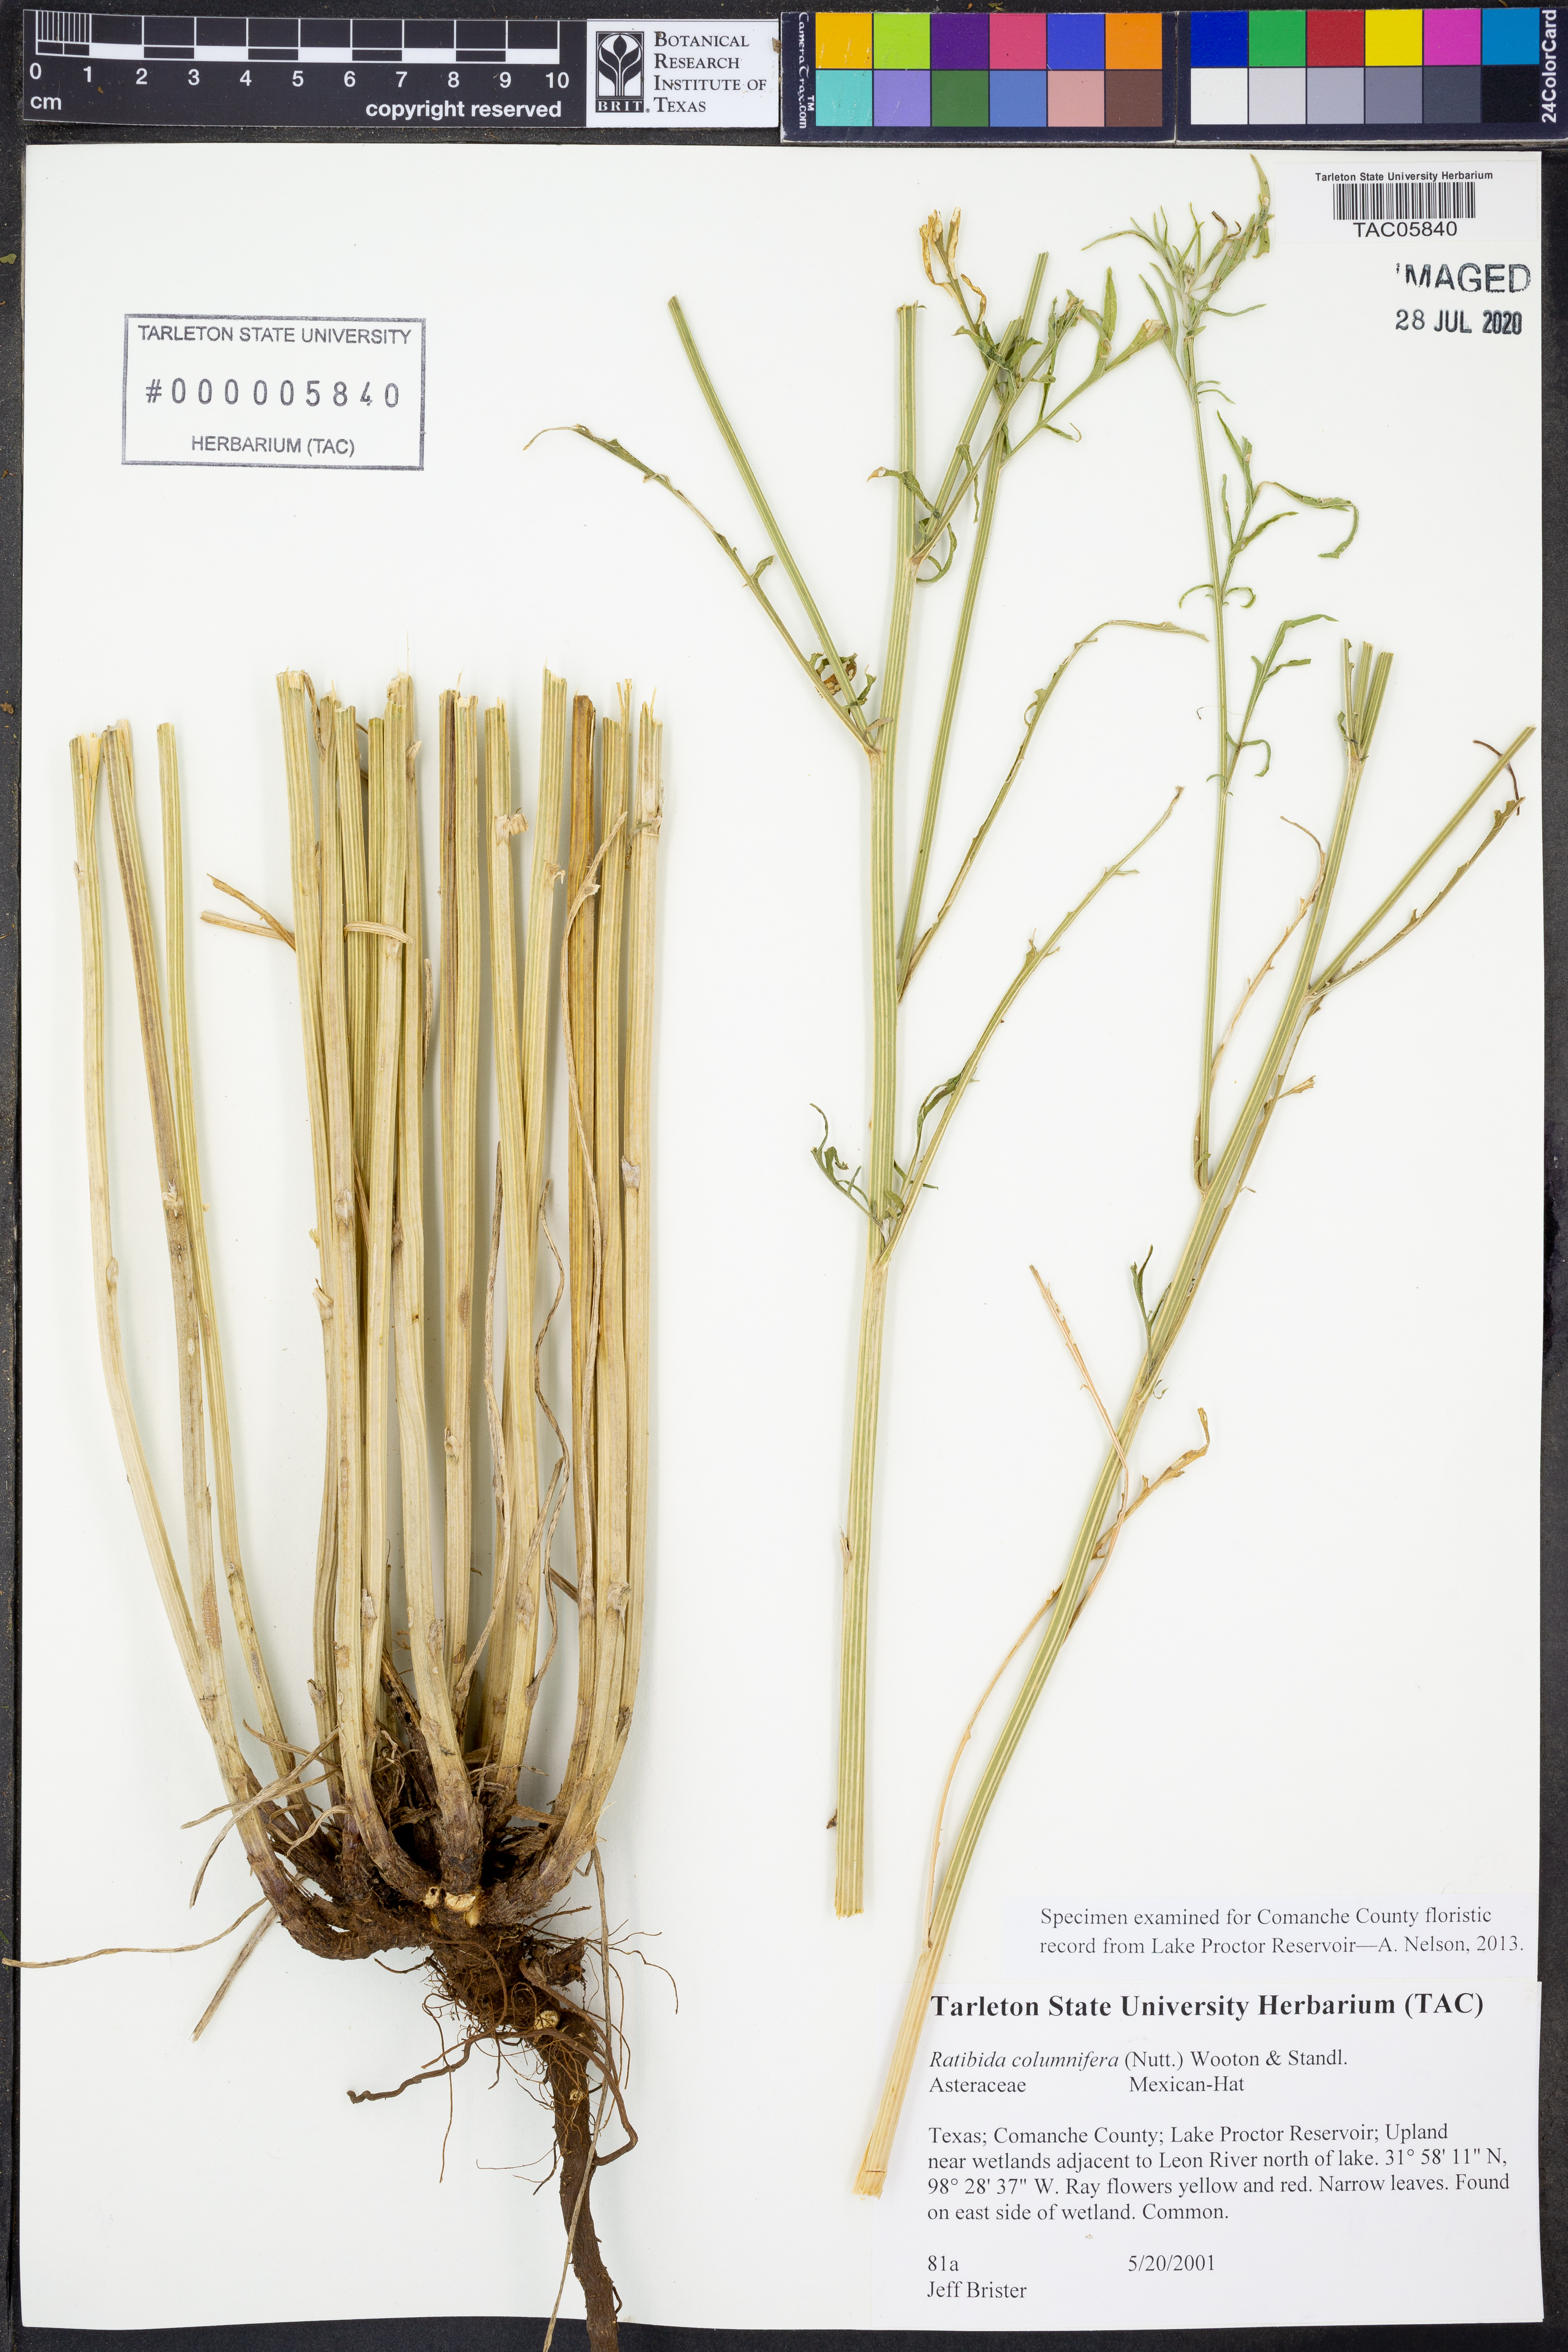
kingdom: Plantae
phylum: Tracheophyta
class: Magnoliopsida
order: Asterales
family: Asteraceae
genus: Ratibida
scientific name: Ratibida columnifera
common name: Prairie coneflower
